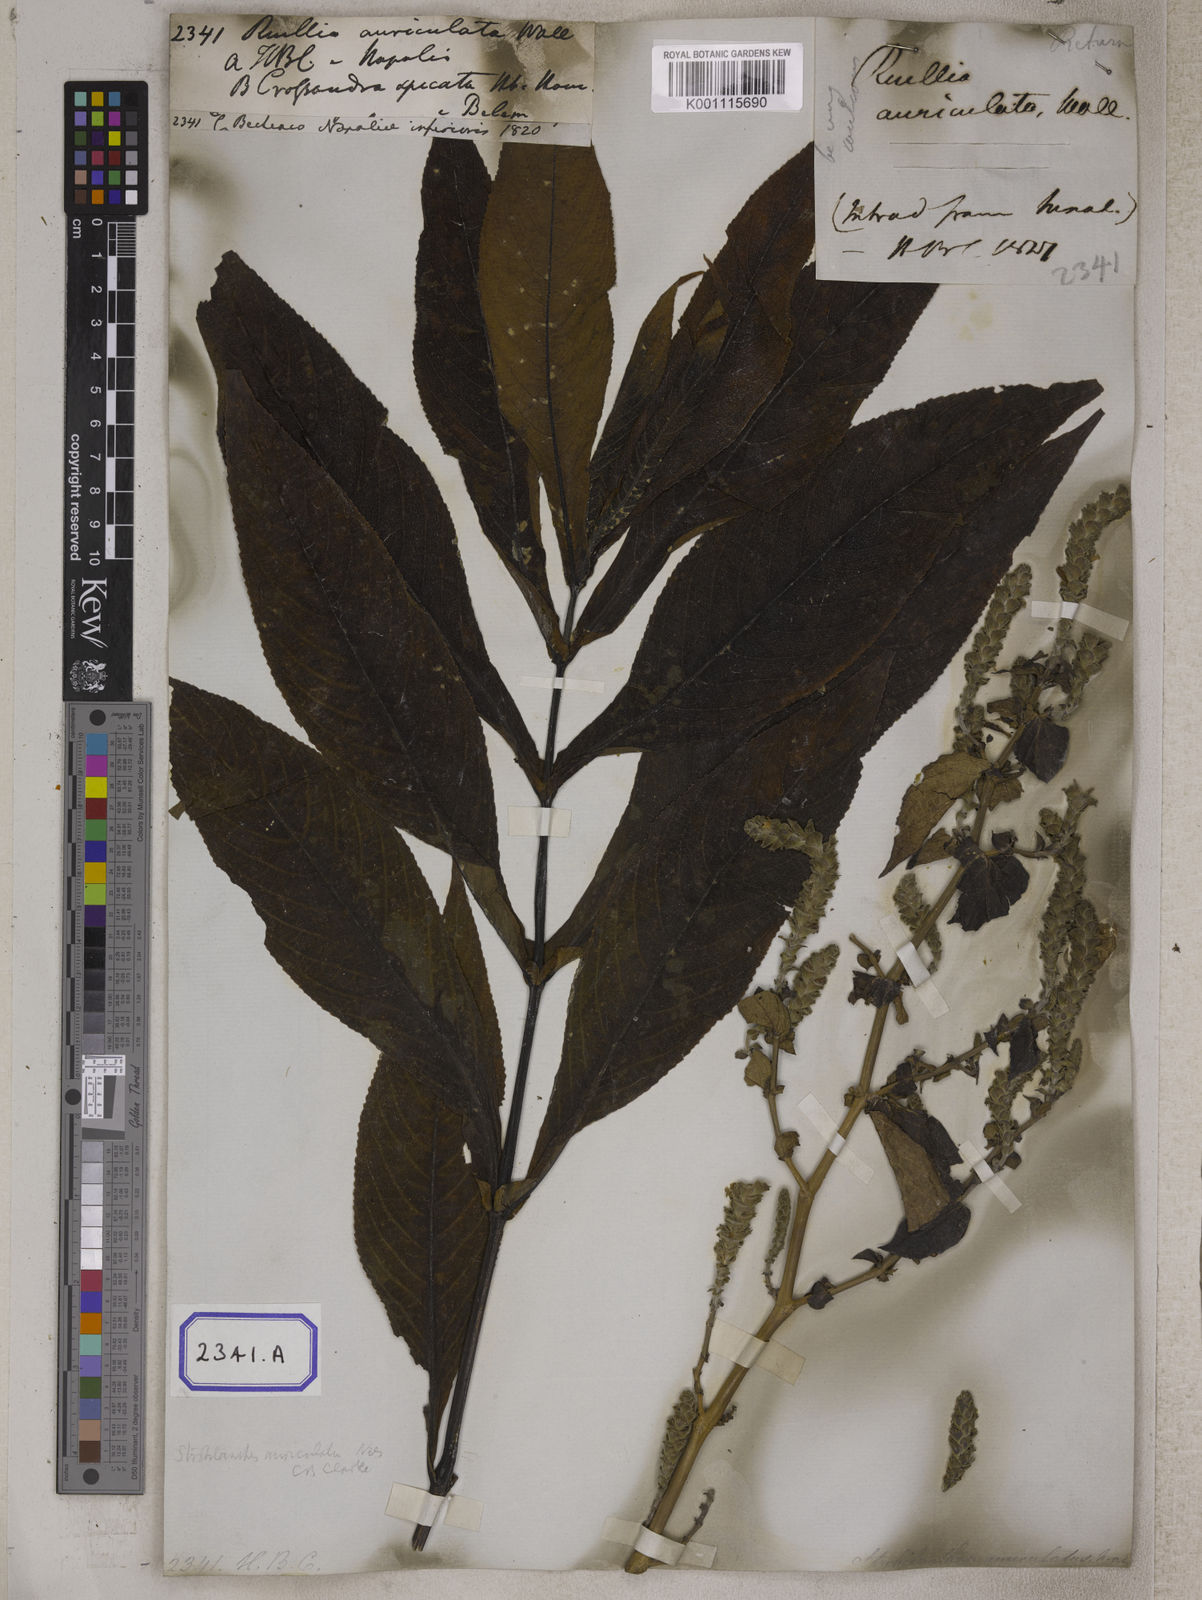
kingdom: Plantae
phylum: Tracheophyta
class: Magnoliopsida
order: Lamiales
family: Acanthaceae
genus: Mackaya
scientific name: Mackaya neesiana
